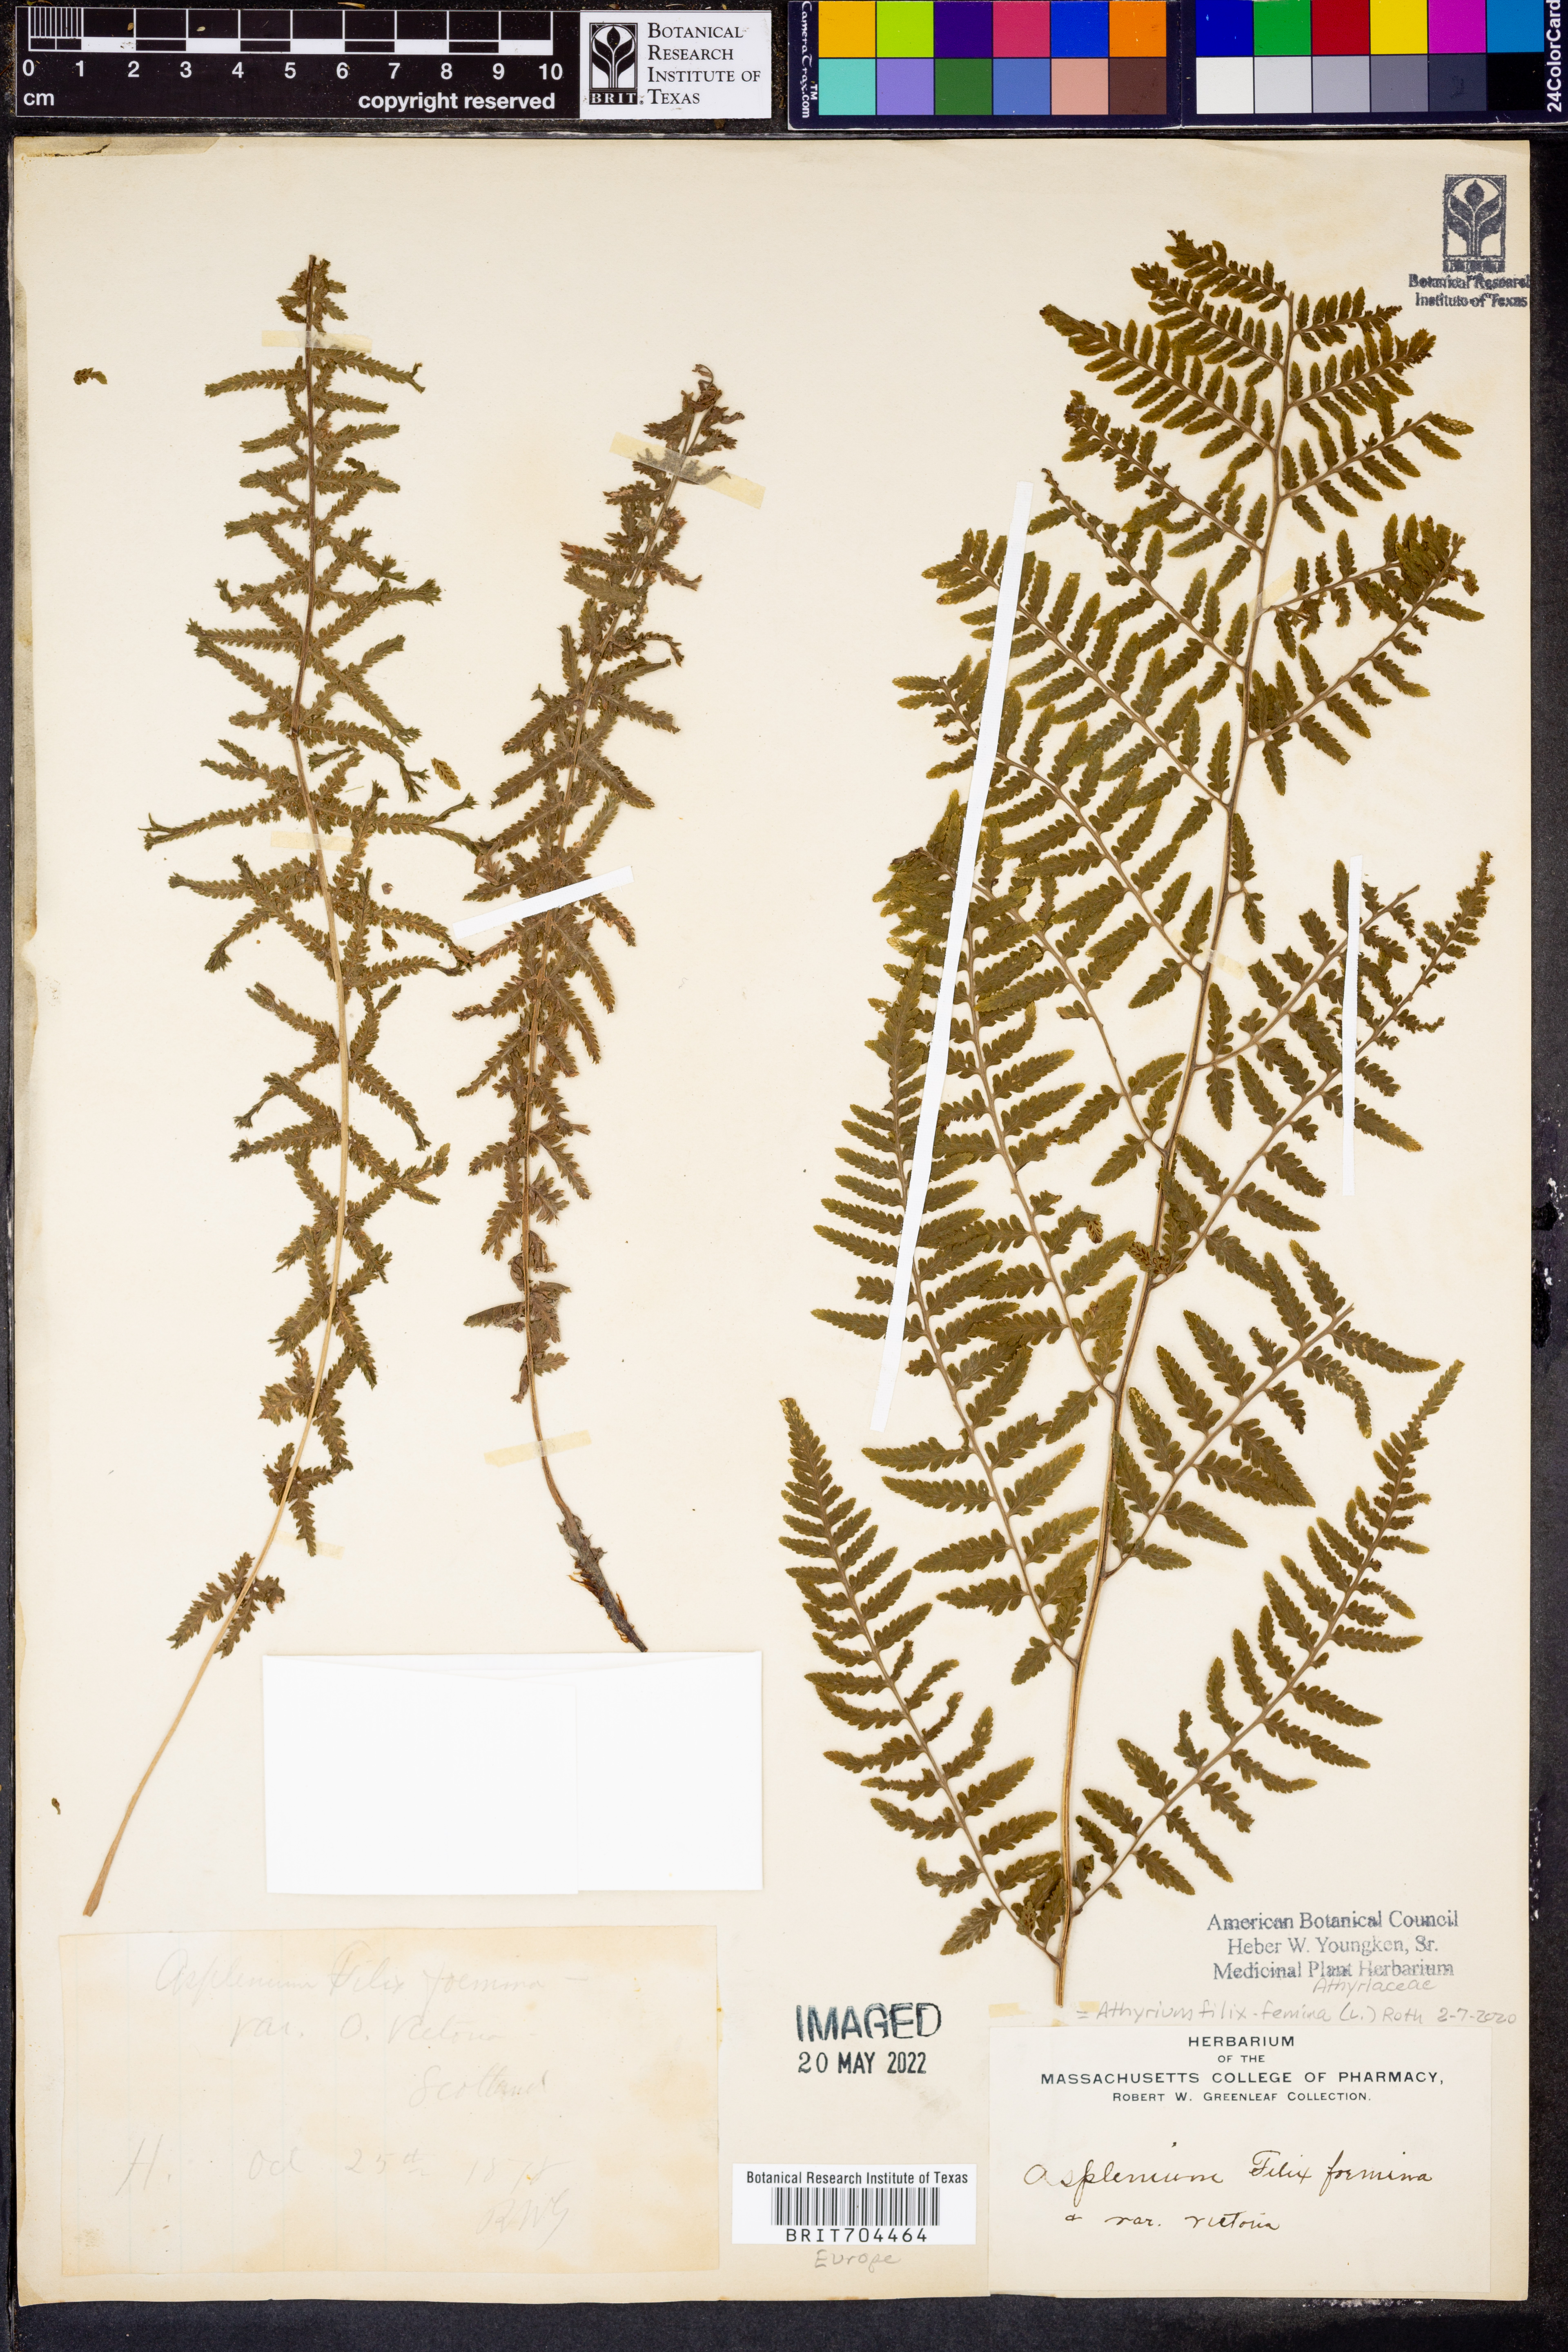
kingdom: Plantae
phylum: Tracheophyta
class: Polypodiopsida
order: Polypodiales
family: Athyriaceae
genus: Athyrium
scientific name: Athyrium filix-femina
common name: Lady fern
